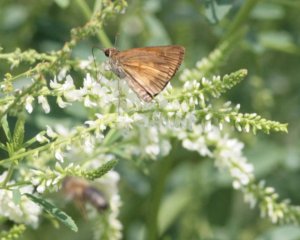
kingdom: Animalia
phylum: Arthropoda
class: Insecta
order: Lepidoptera
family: Hesperiidae
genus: Poanes
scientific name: Poanes viator
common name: Broad-winged Skipper
